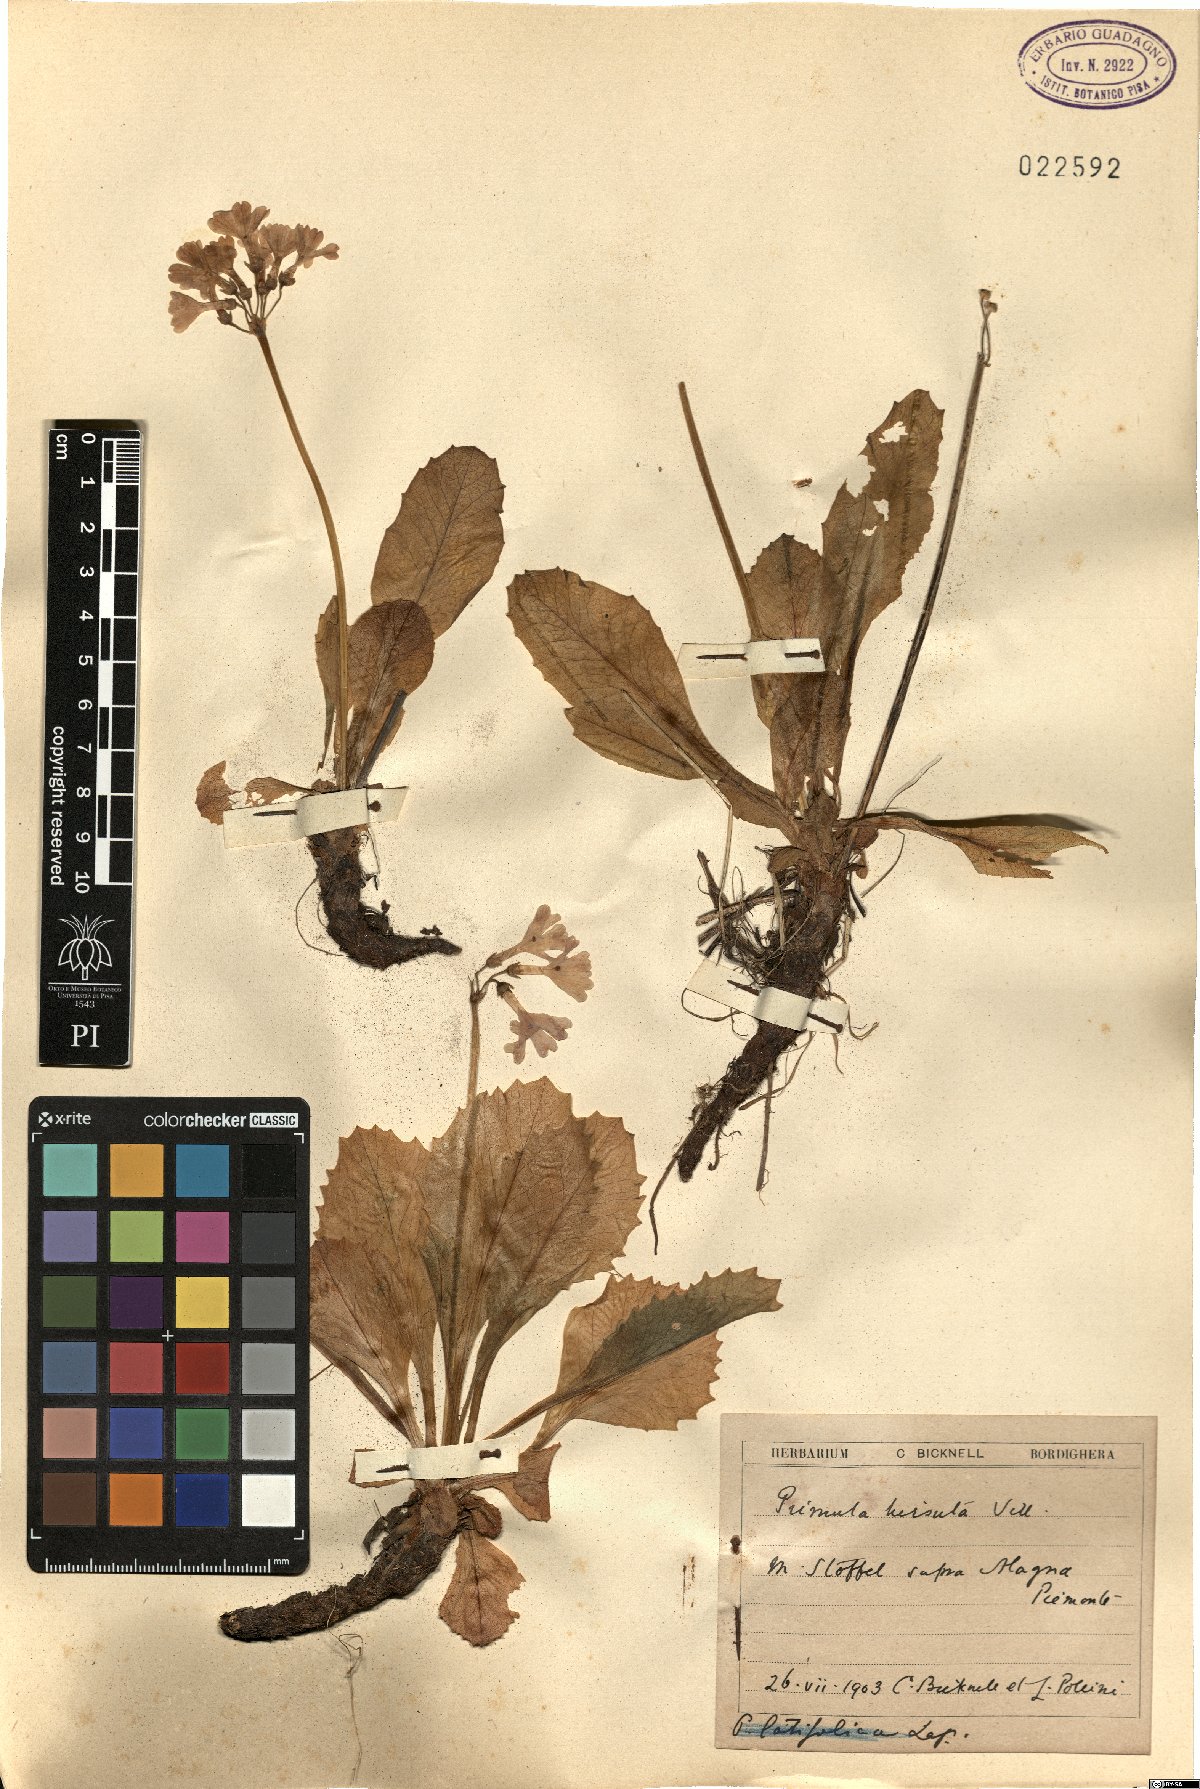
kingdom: Plantae
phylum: Tracheophyta
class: Magnoliopsida
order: Ericales
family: Primulaceae
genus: Primula
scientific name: Primula hirsuta
